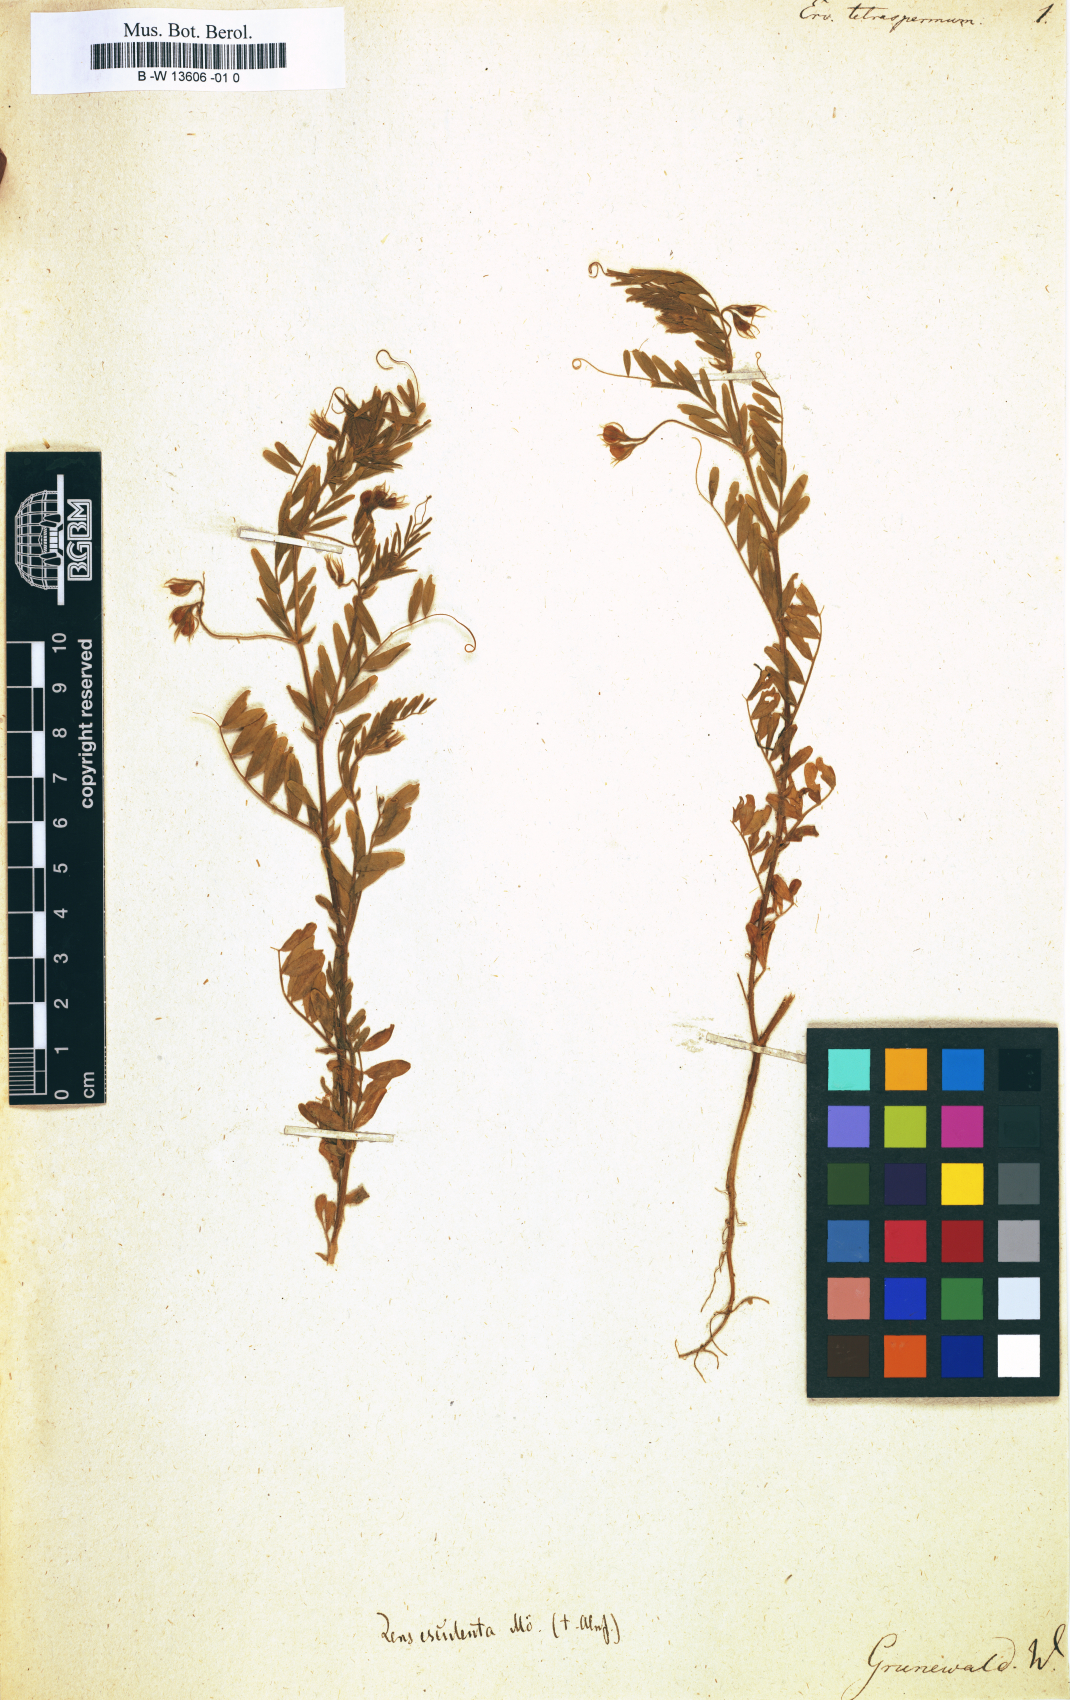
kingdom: Plantae
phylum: Tracheophyta
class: Magnoliopsida
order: Fabales
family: Fabaceae
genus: Vicia
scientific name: Vicia tetrasperma
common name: Smooth tare
